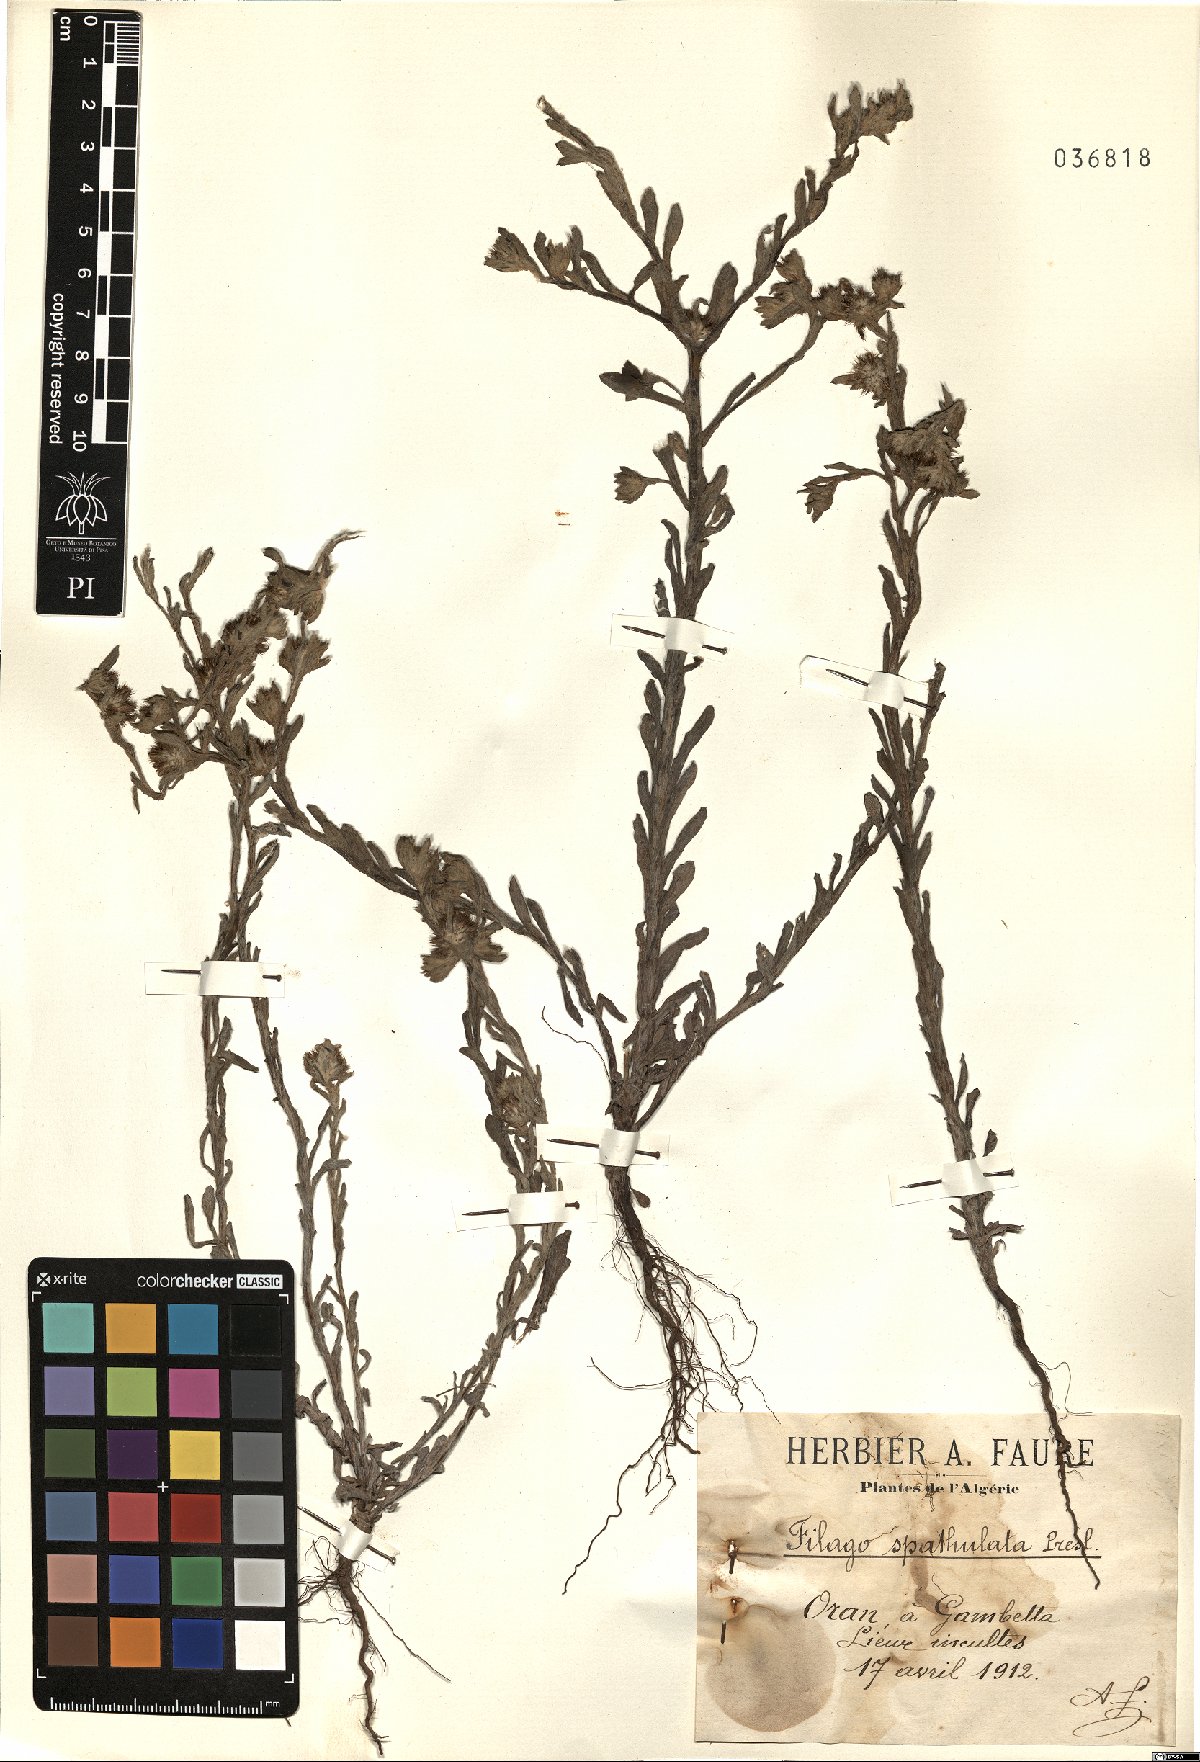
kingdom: Plantae
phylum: Tracheophyta
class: Magnoliopsida
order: Asterales
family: Asteraceae
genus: Filago
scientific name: Filago pyramidata
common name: Broad-leaved cudweed
